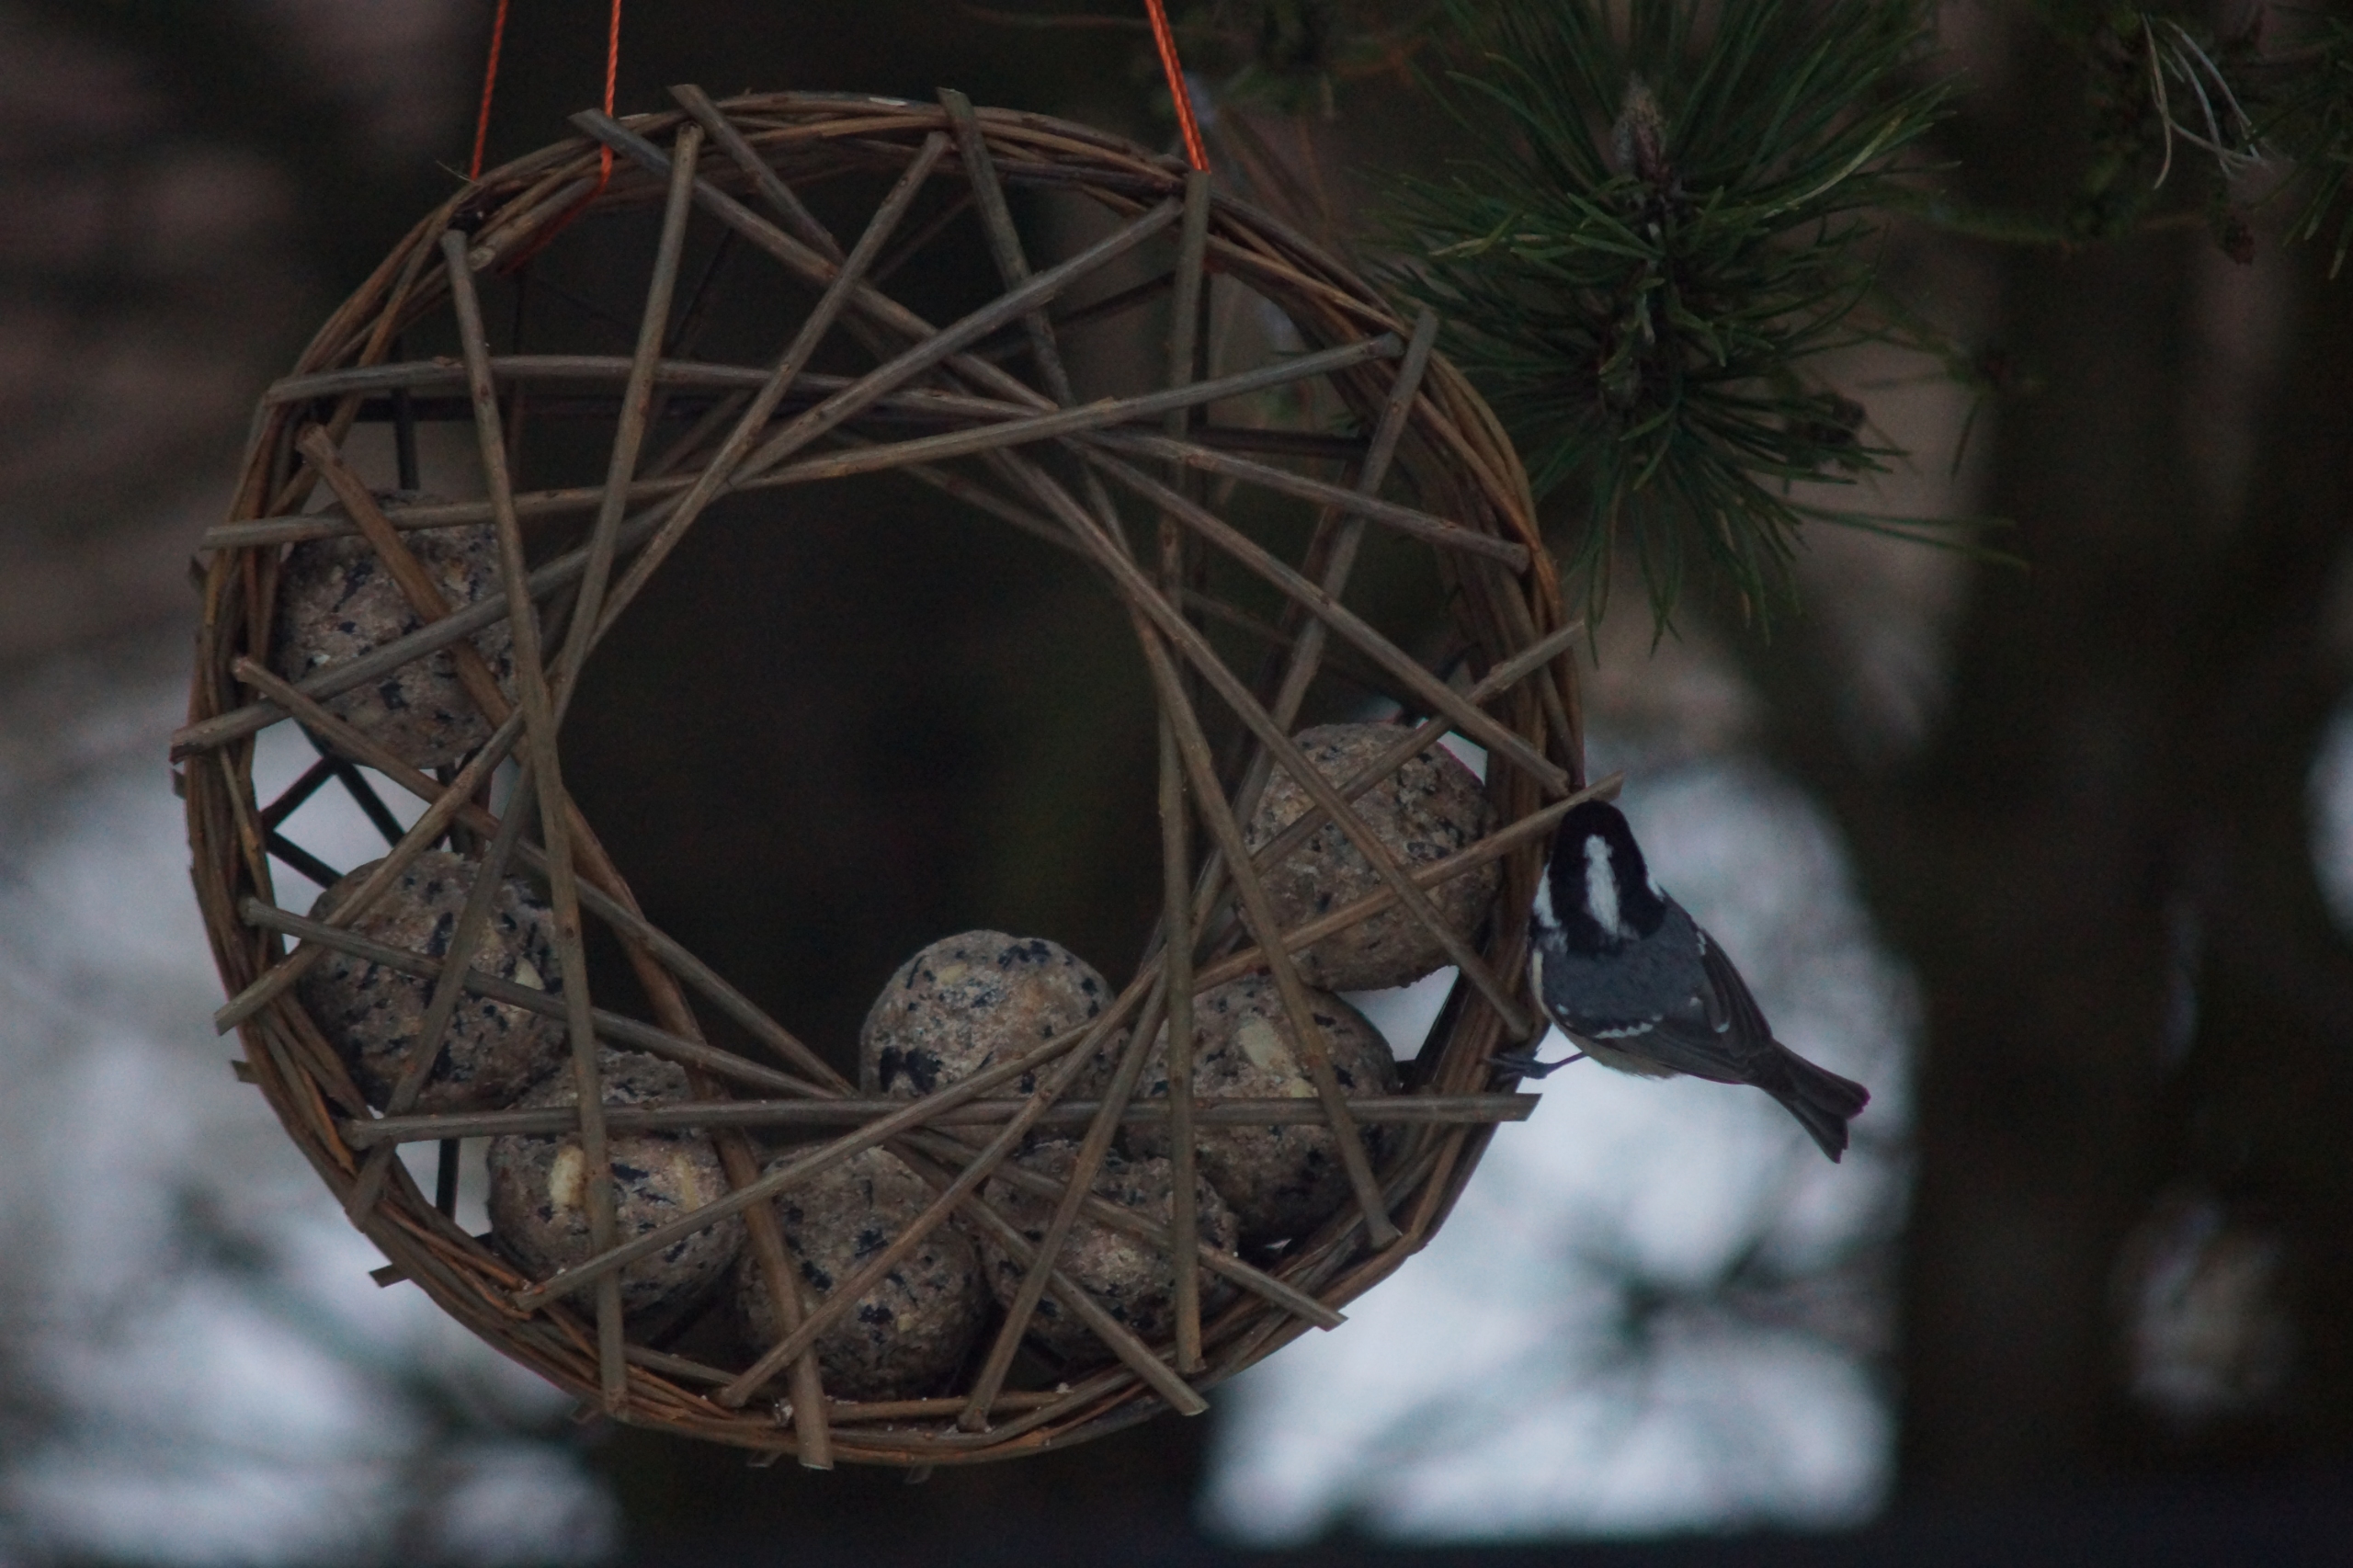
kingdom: Animalia
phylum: Chordata
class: Aves
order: Passeriformes
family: Paridae
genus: Periparus
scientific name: Periparus ater
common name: Sortmejse
